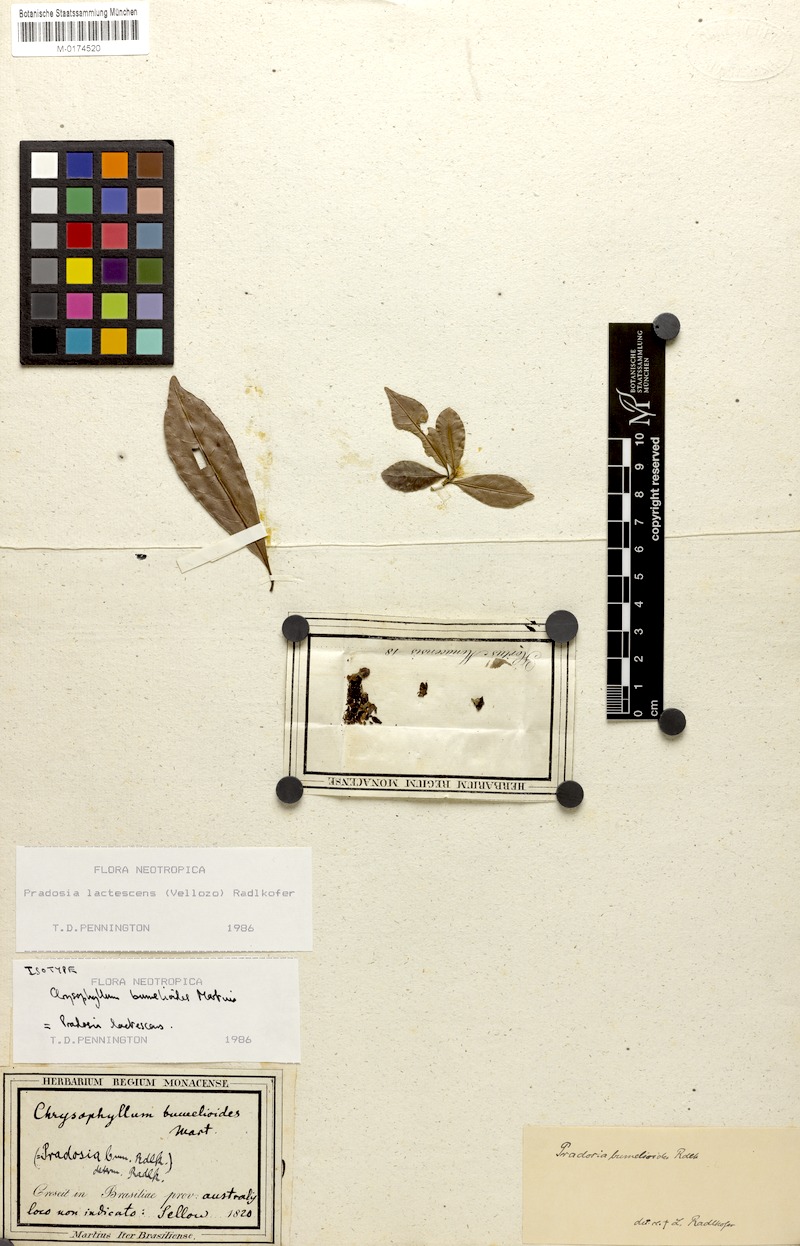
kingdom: Plantae
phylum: Tracheophyta
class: Magnoliopsida
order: Ericales
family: Sapotaceae
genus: Pradosia
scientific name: Pradosia lactescens
